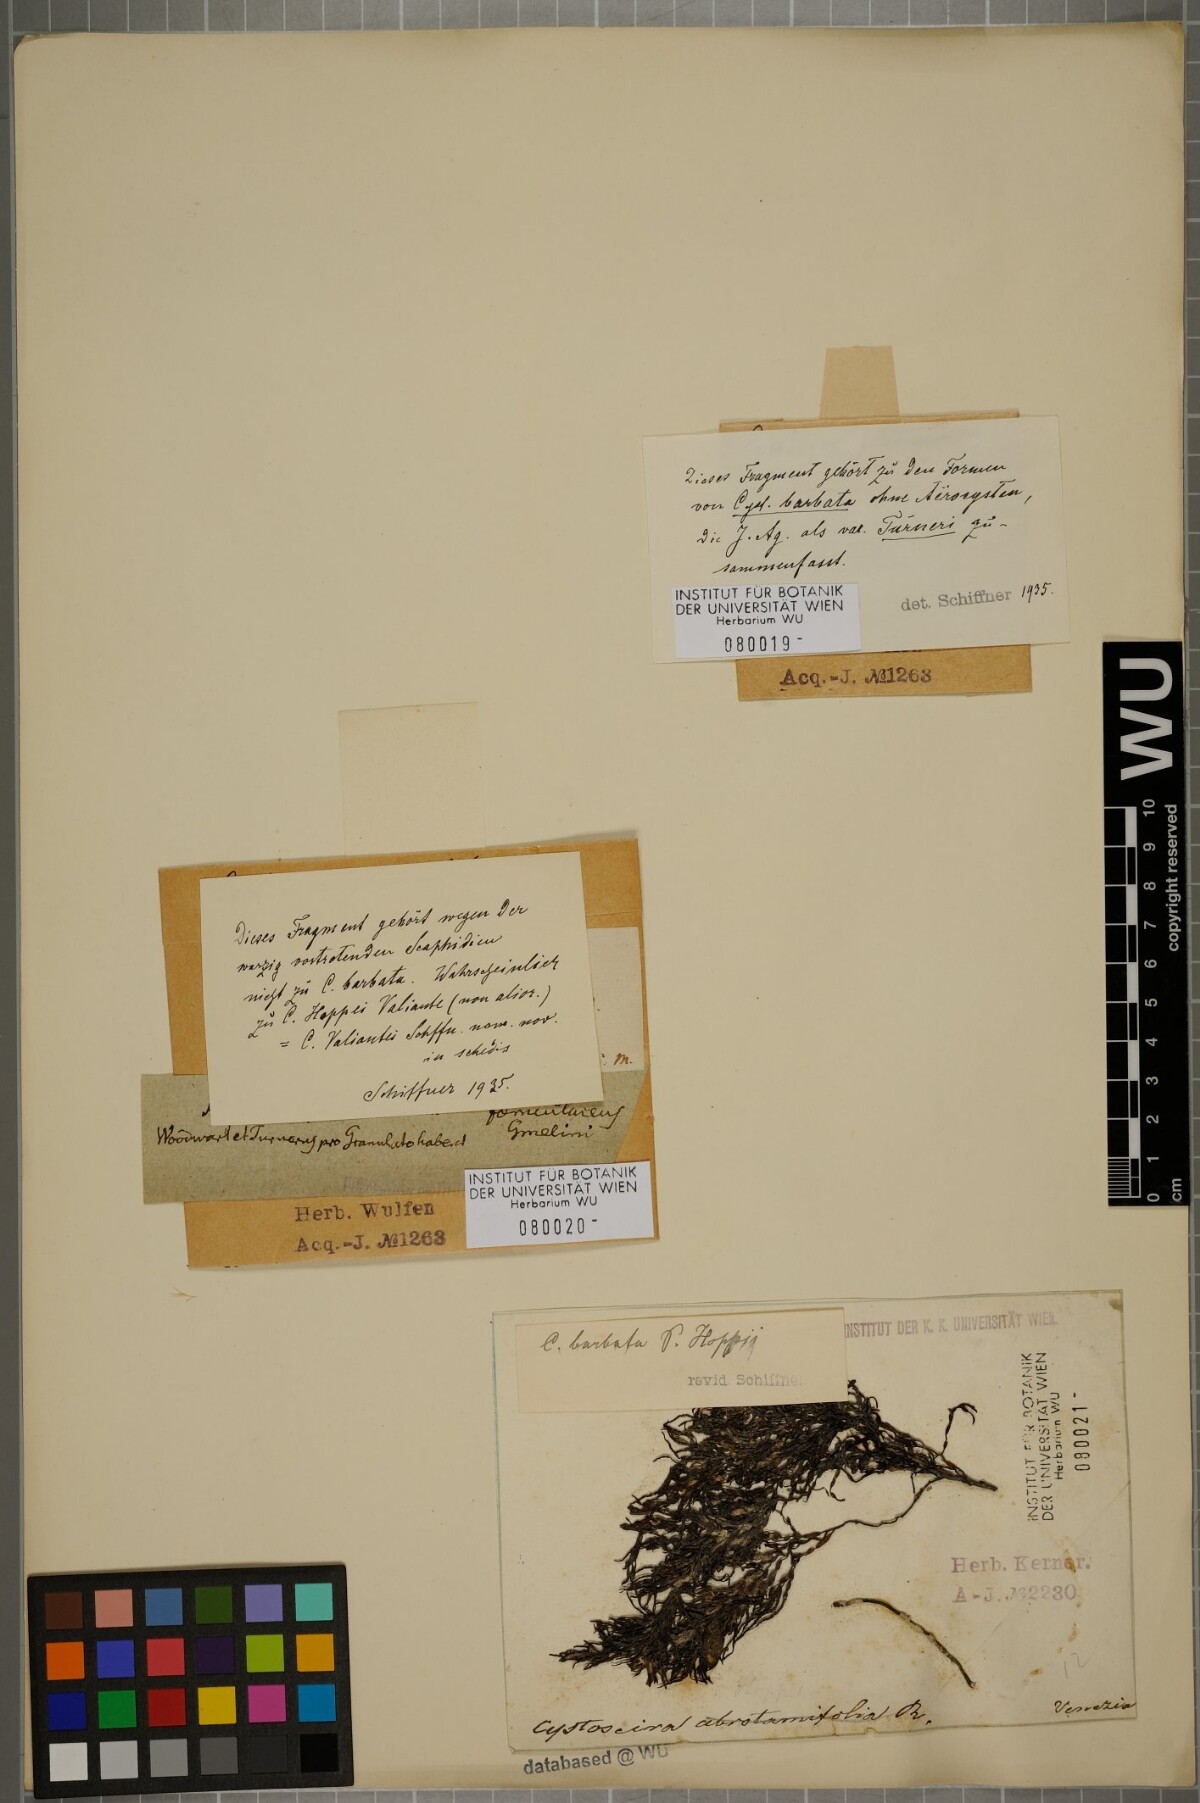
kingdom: Chromista
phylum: Ochrophyta
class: Phaeophyceae
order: Fucales
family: Sargassaceae
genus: Cystoseira
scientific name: Cystoseira Gongolaria barbata
